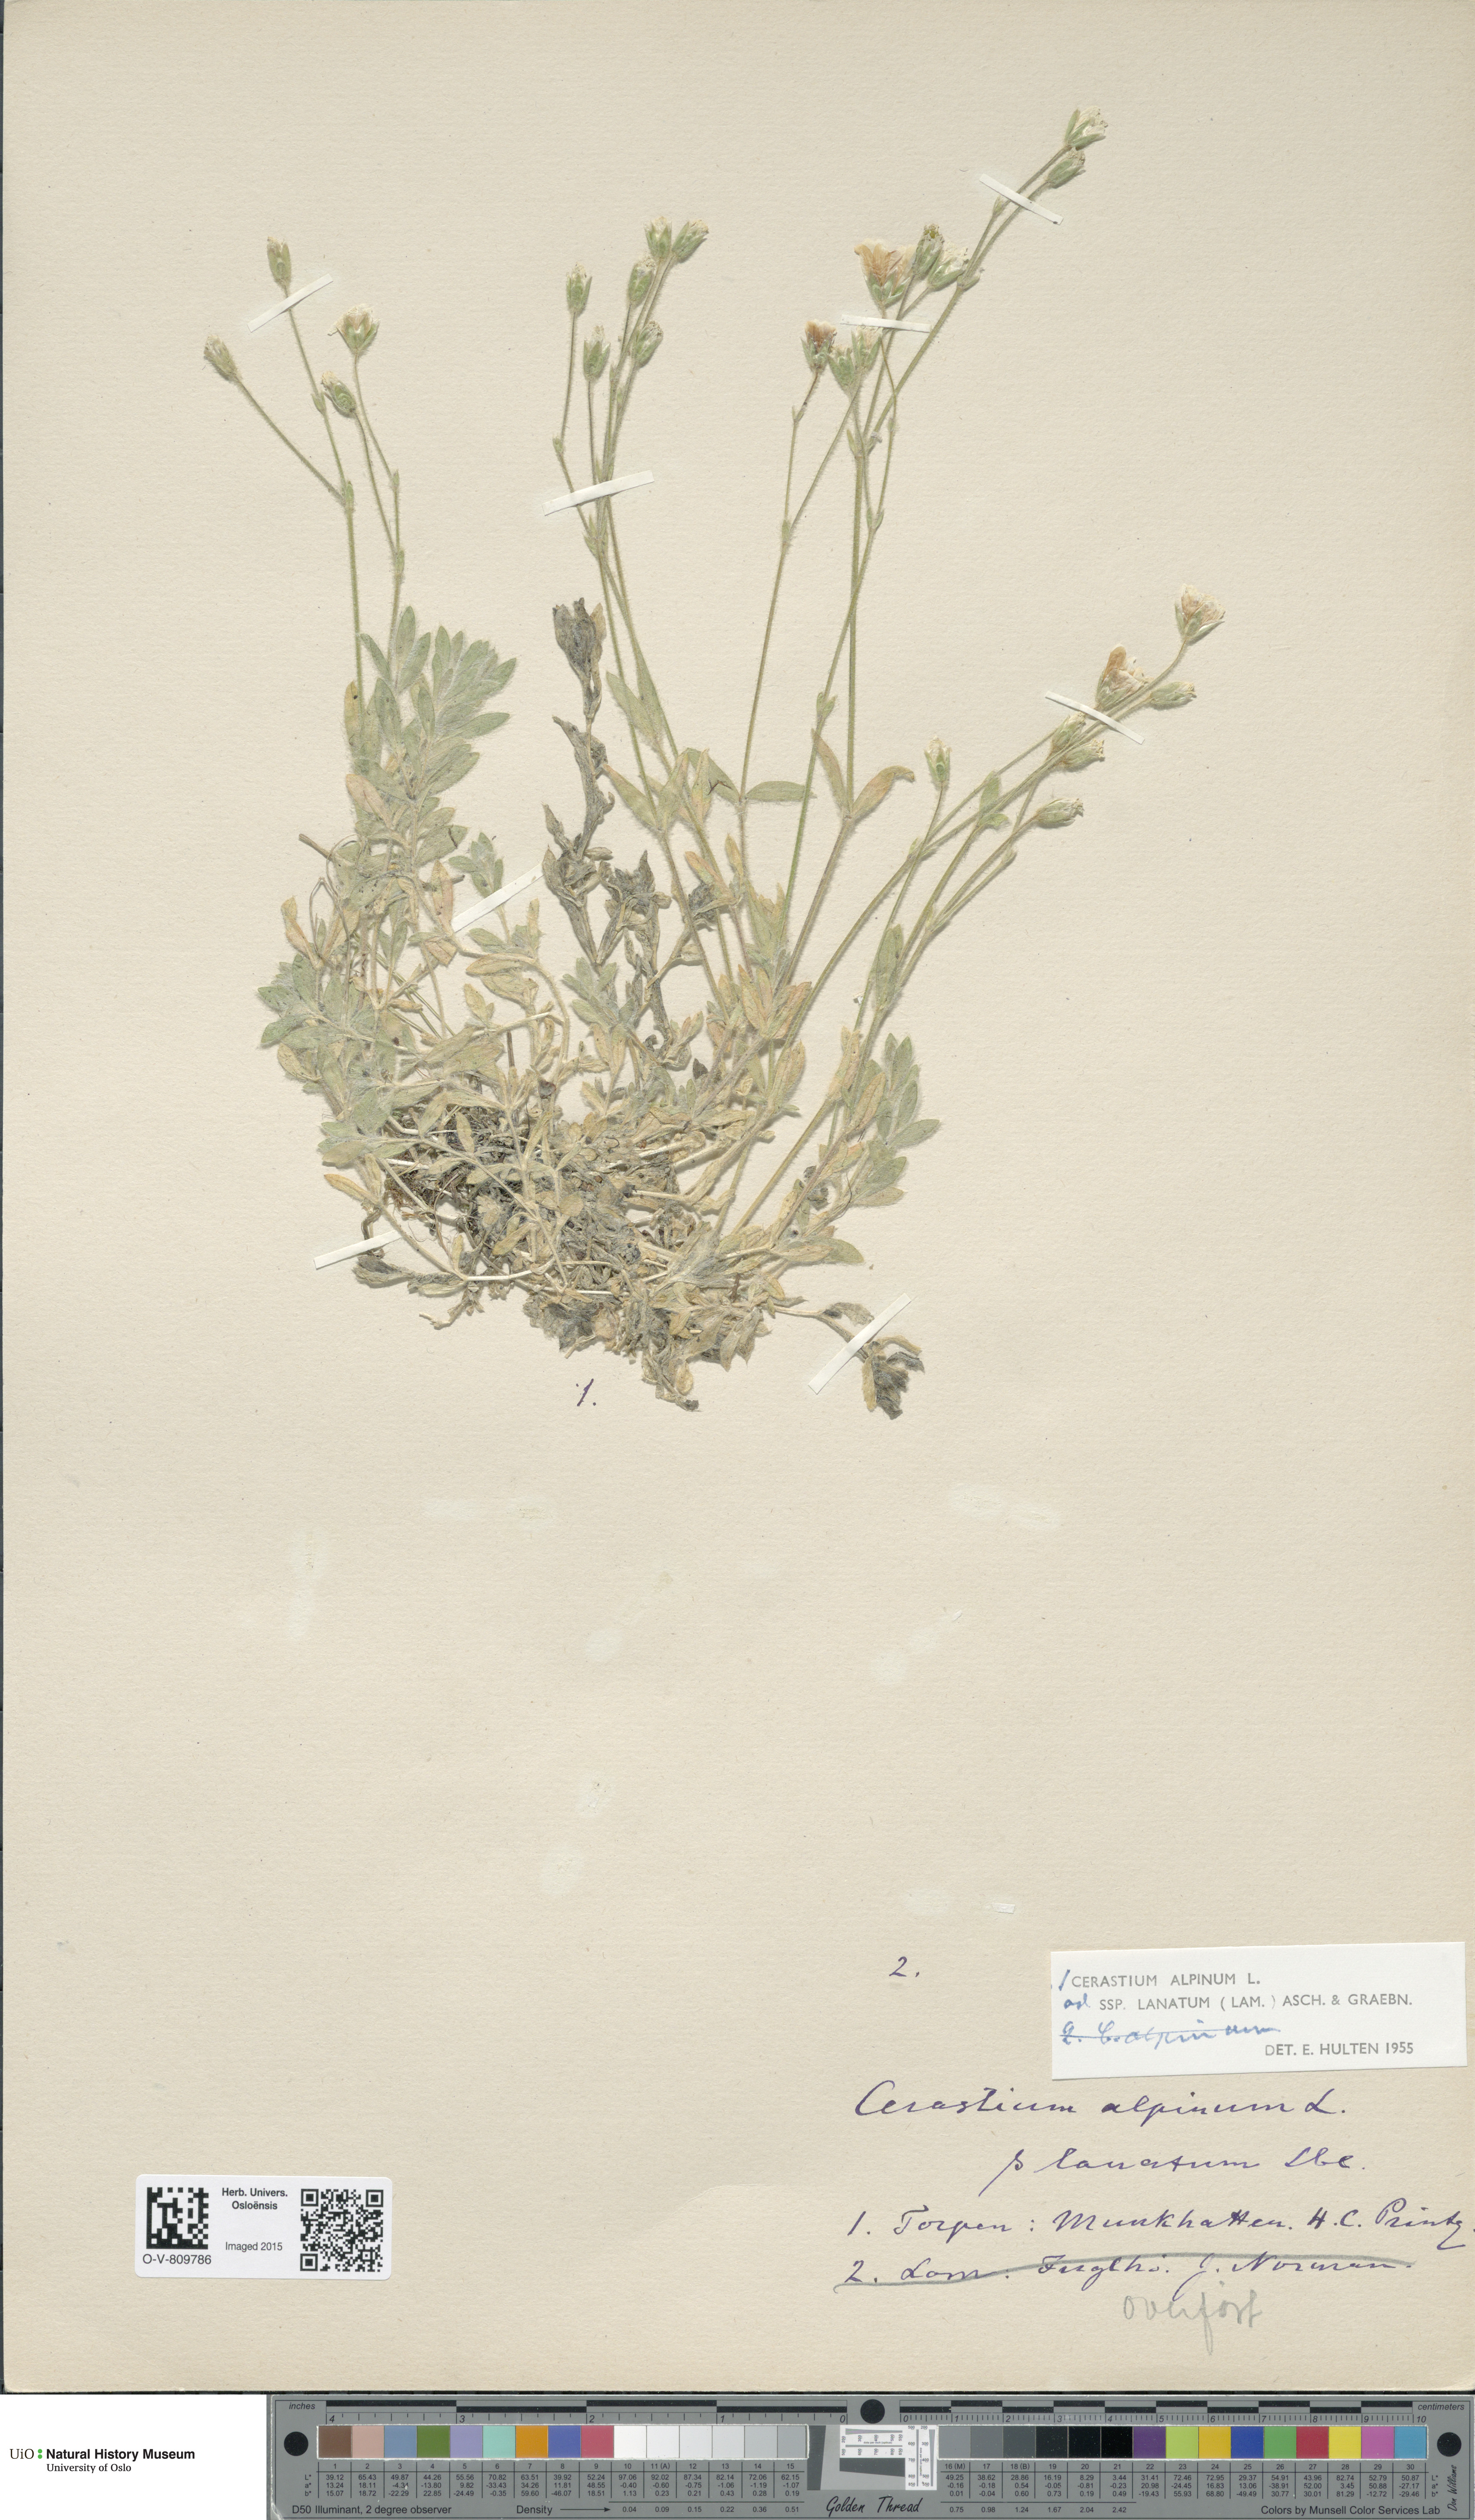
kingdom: Plantae
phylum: Tracheophyta
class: Magnoliopsida
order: Caryophyllales
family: Caryophyllaceae
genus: Cerastium
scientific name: Cerastium alpinum
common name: Alpine mouse-ear
